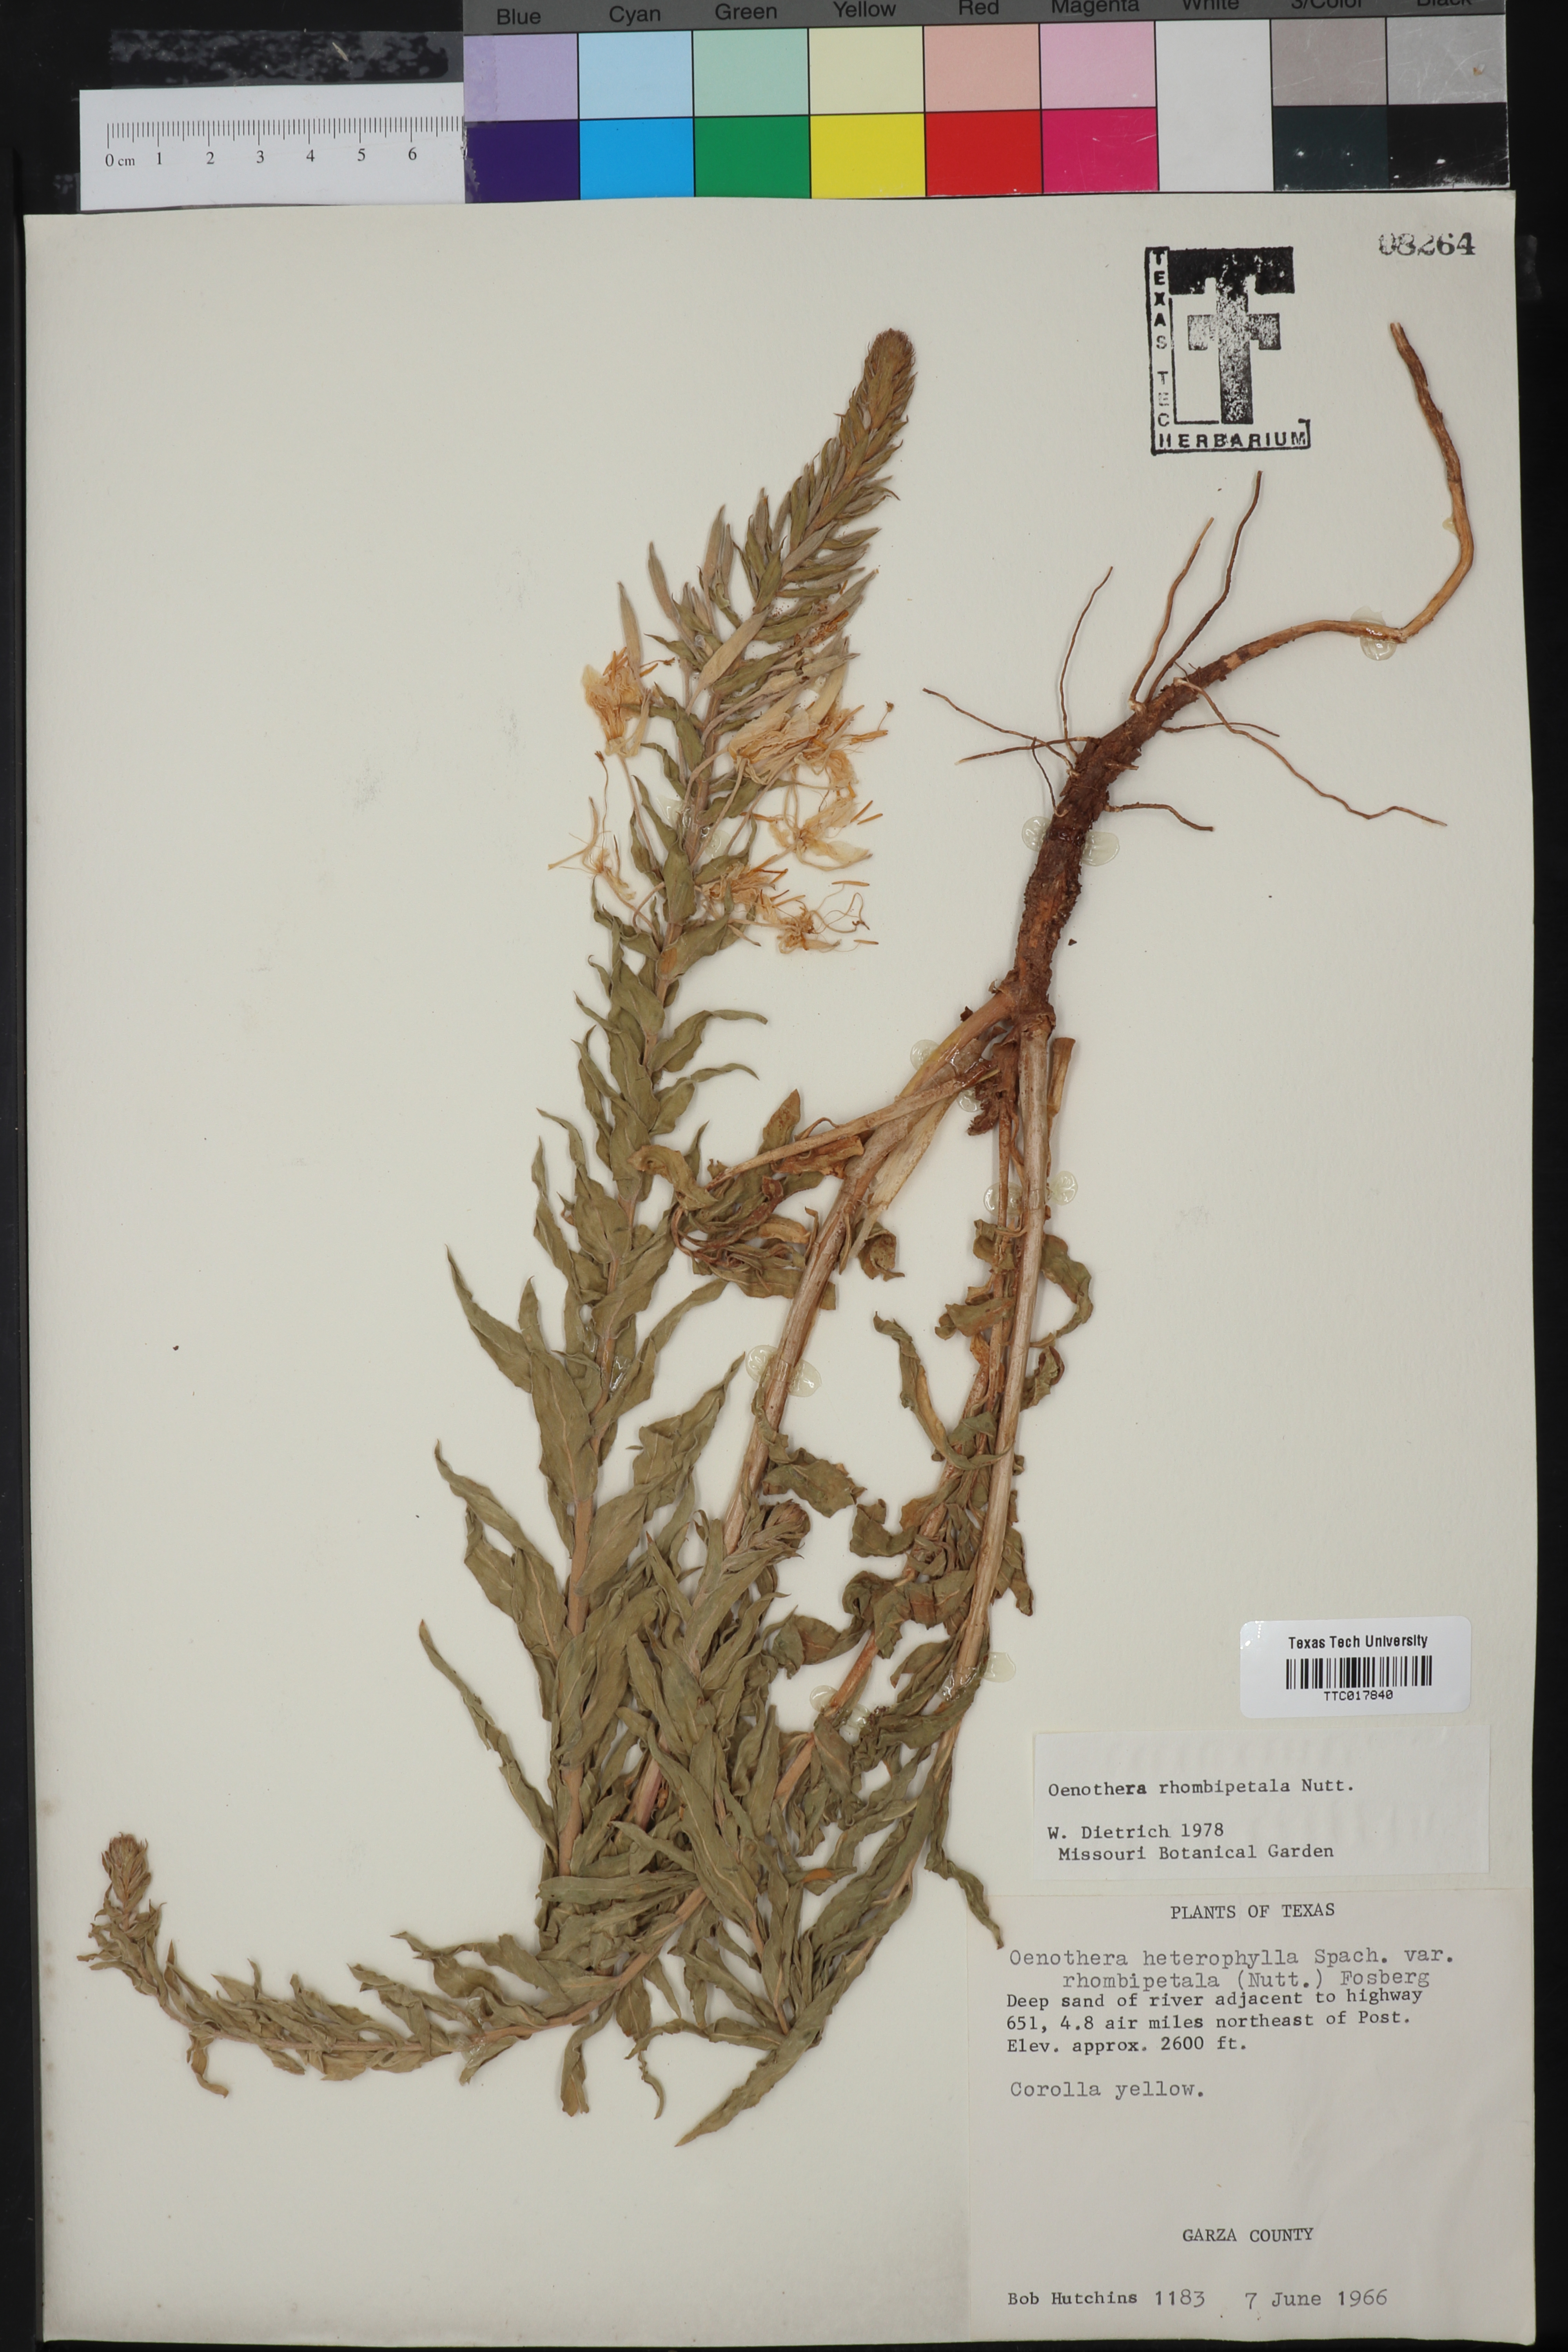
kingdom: Plantae
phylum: Tracheophyta
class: Magnoliopsida
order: Myrtales
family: Onagraceae
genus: Oenothera
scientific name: Oenothera rhombipetala
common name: Four-points evening-primrose
